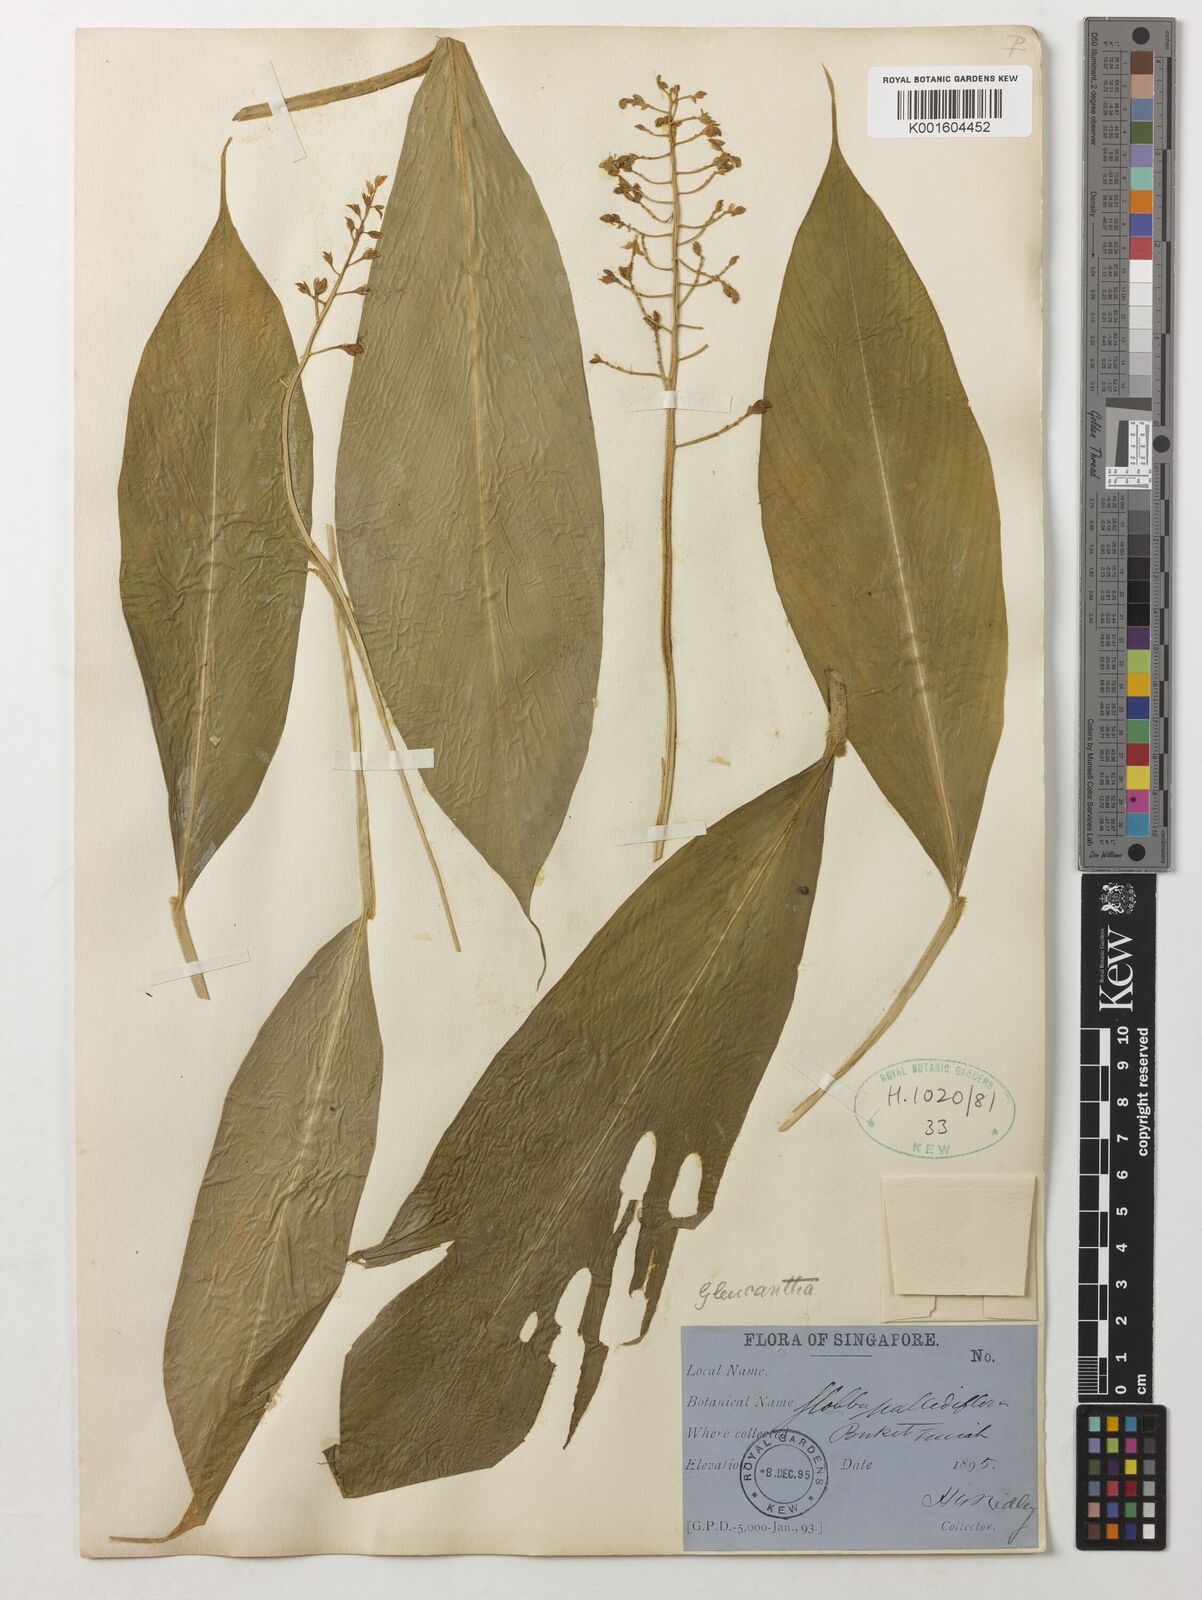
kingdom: Plantae
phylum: Tracheophyta
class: Liliopsida
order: Zingiberales
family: Zingiberaceae
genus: Globba
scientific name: Globba leucantha
